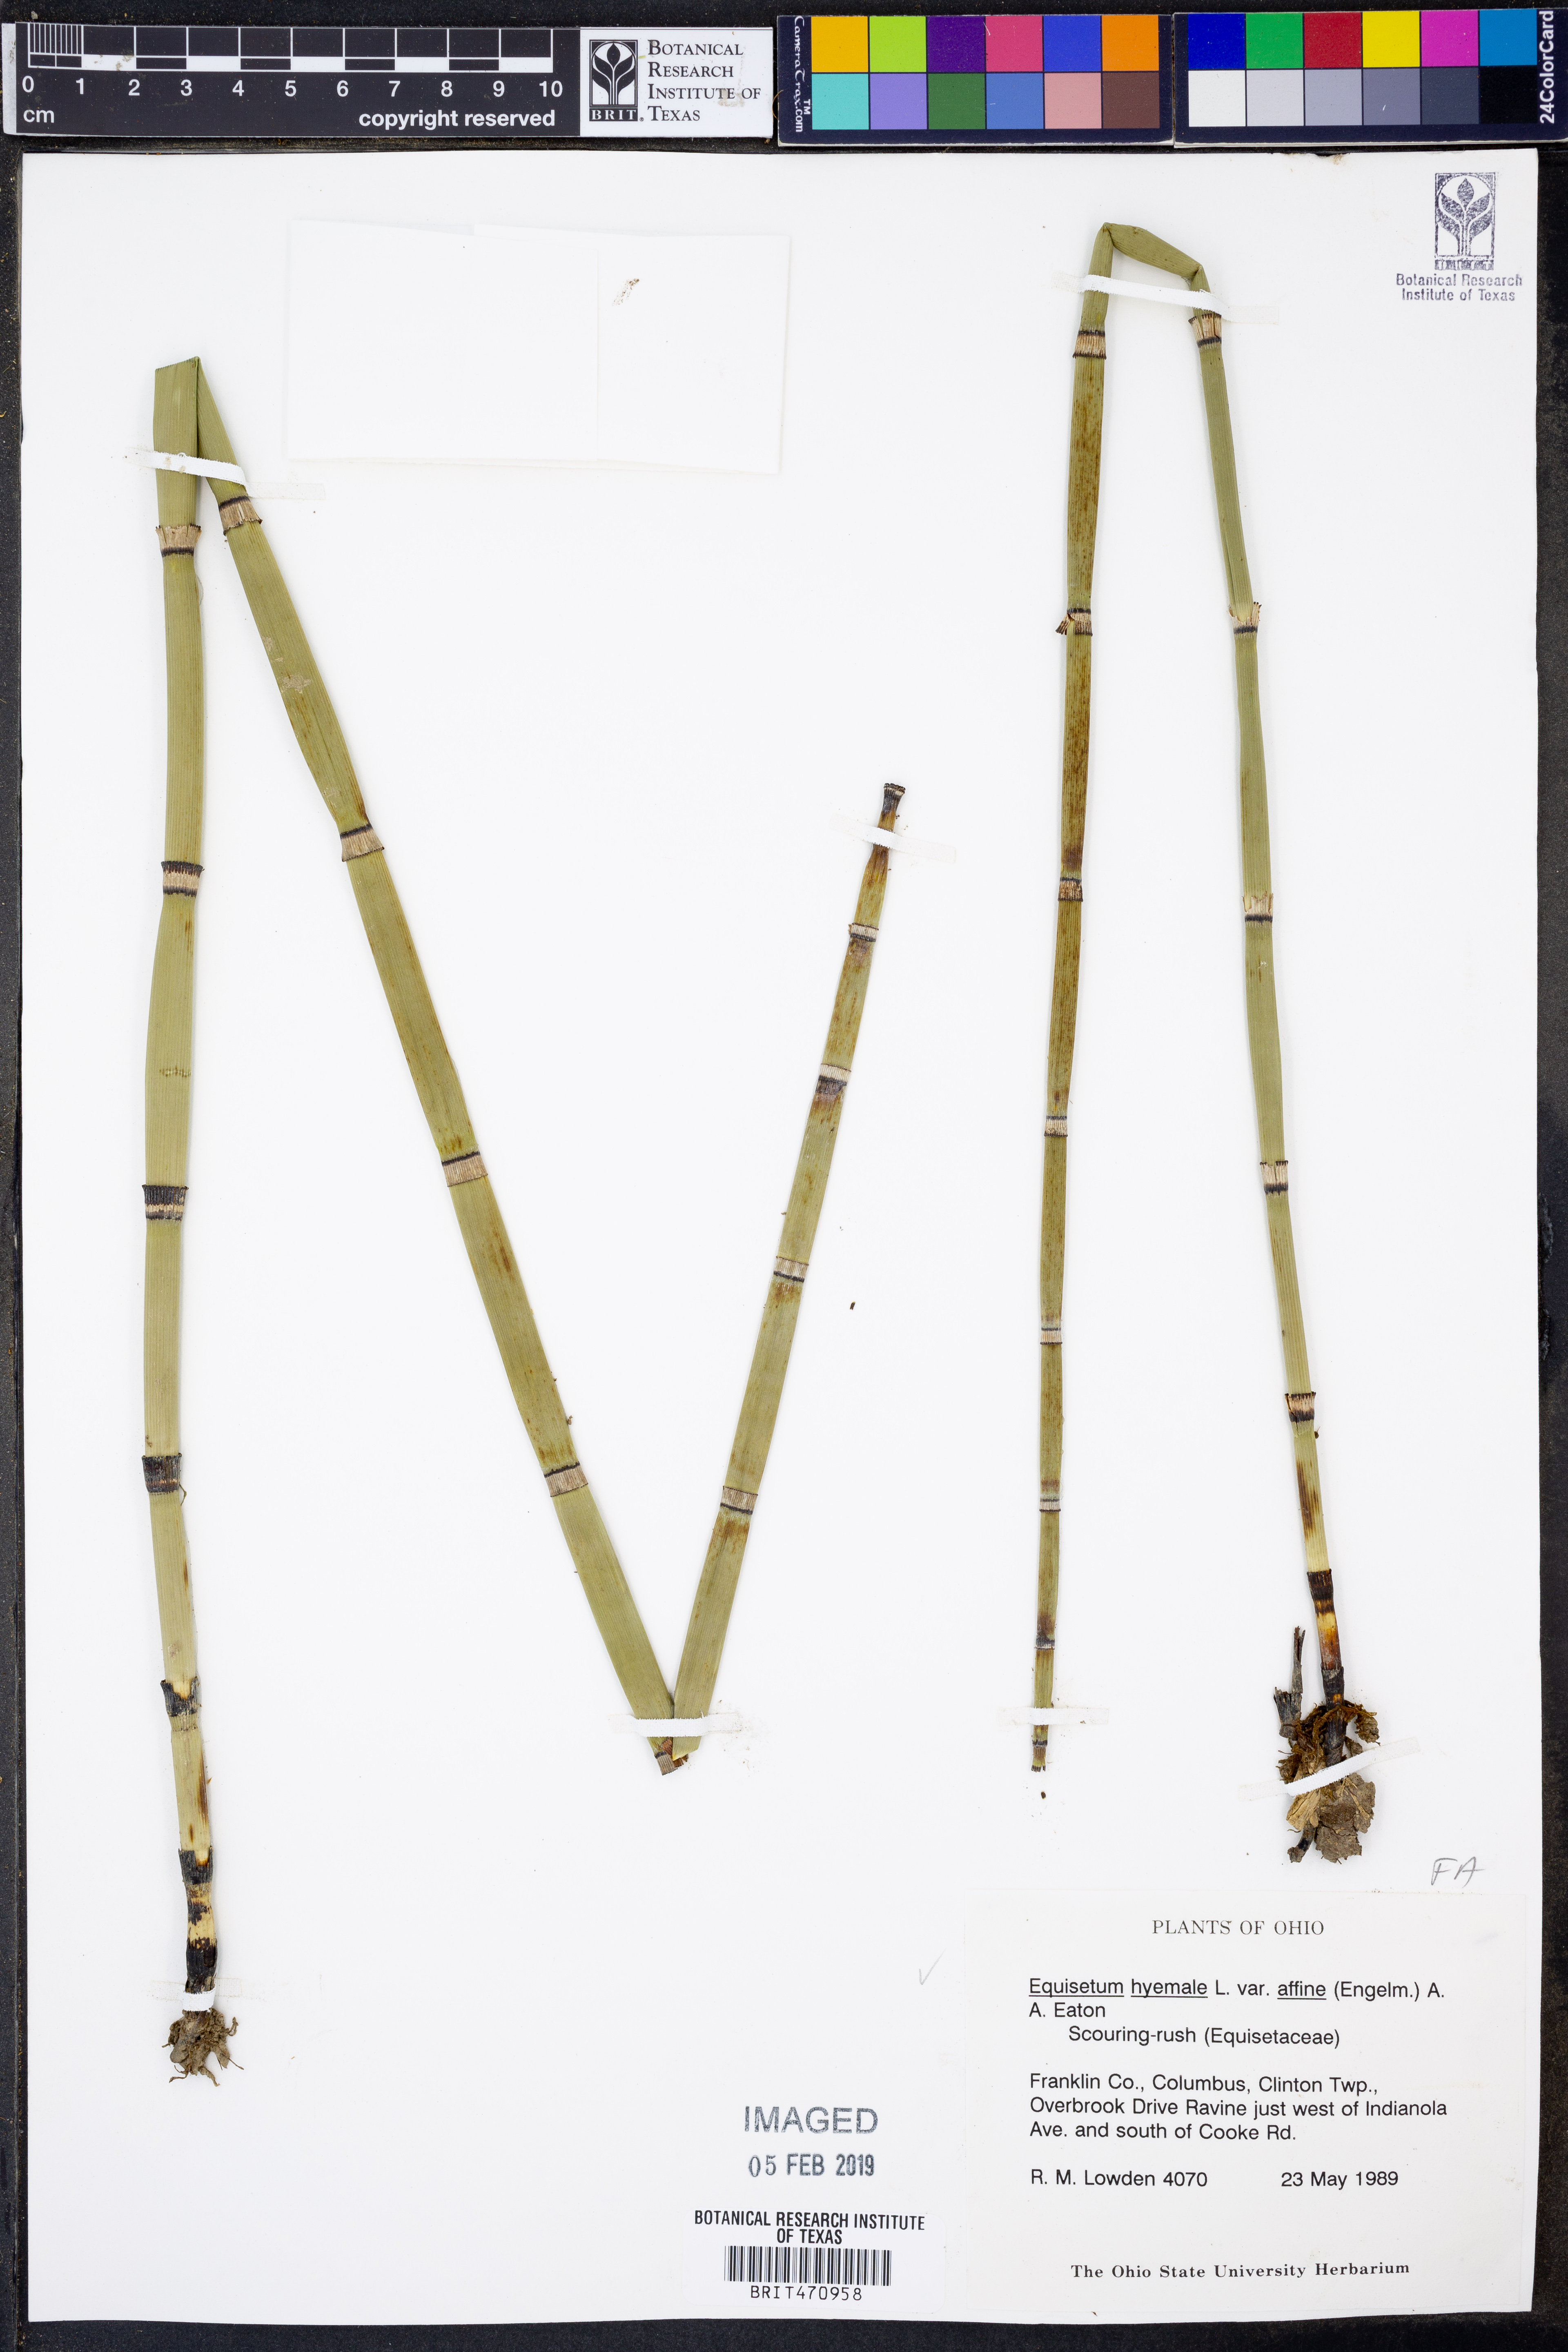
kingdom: Plantae
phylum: Tracheophyta
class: Polypodiopsida
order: Equisetales
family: Equisetaceae
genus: Equisetum
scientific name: Equisetum praealtum
